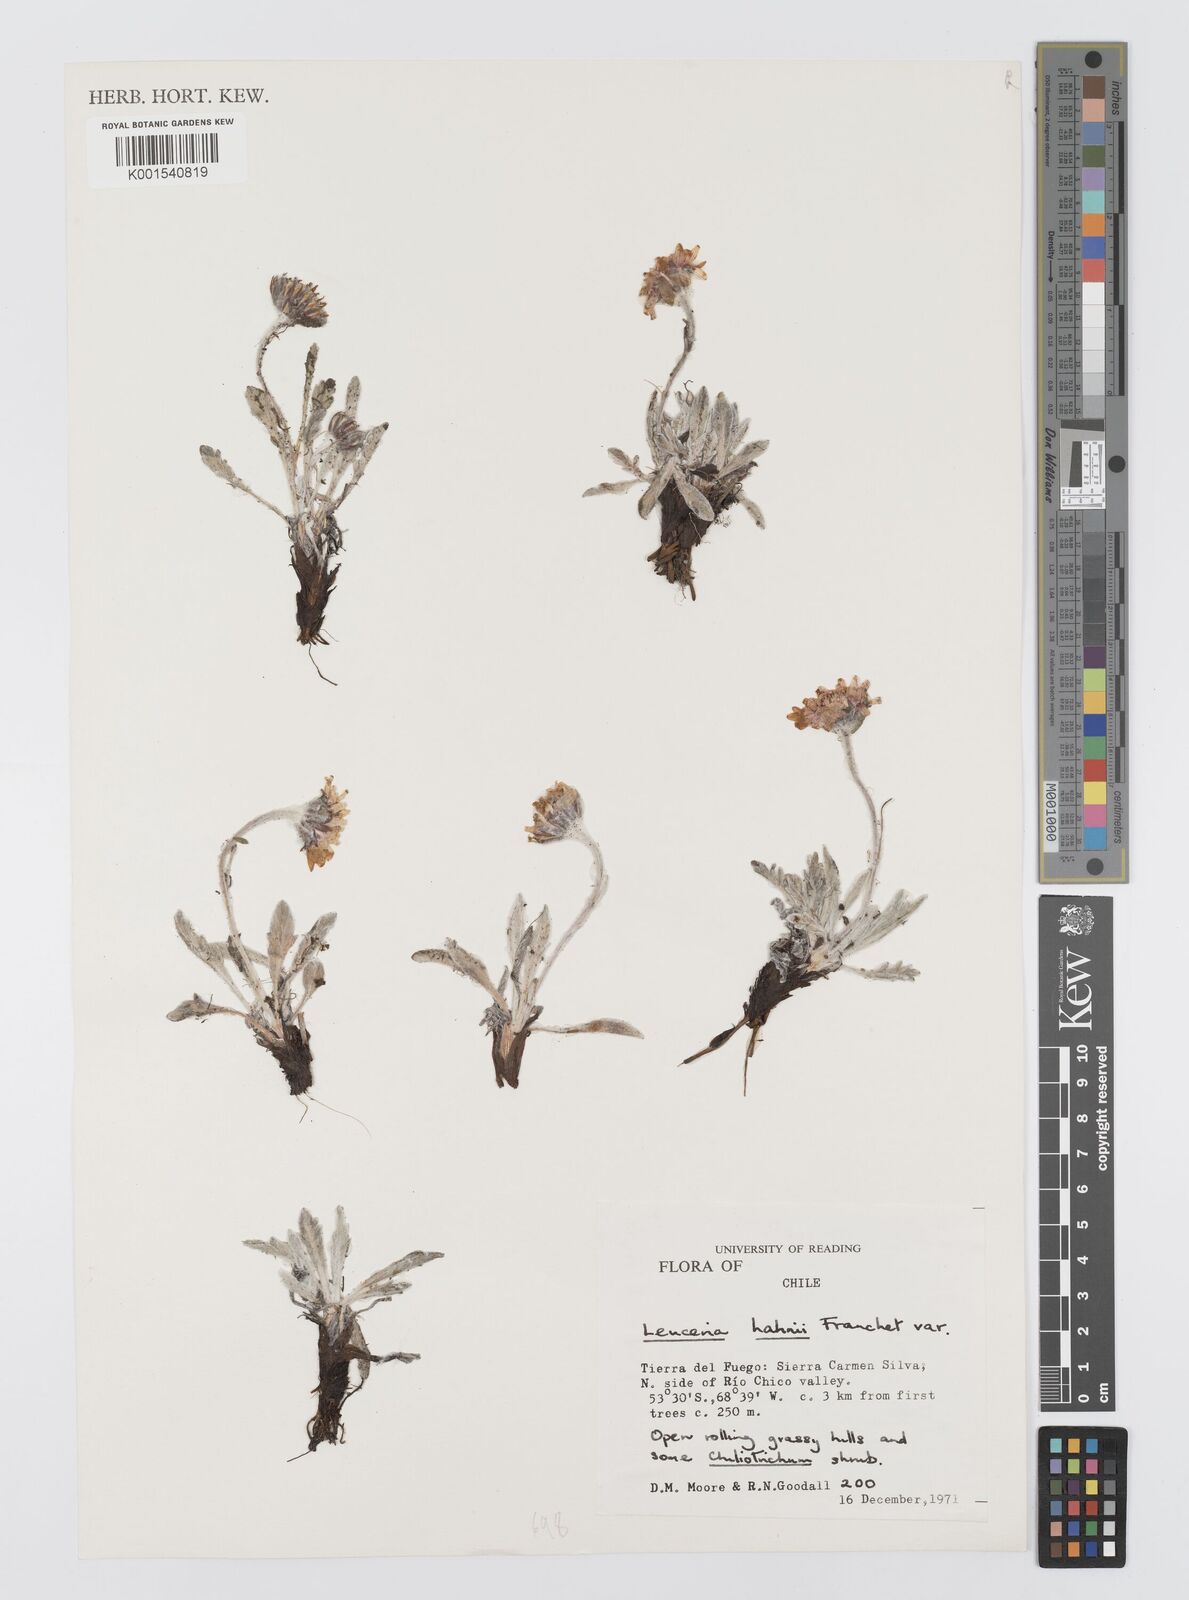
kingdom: Plantae
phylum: Tracheophyta
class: Magnoliopsida
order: Asterales
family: Asteraceae
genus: Leucheria
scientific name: Leucheria hahnii
